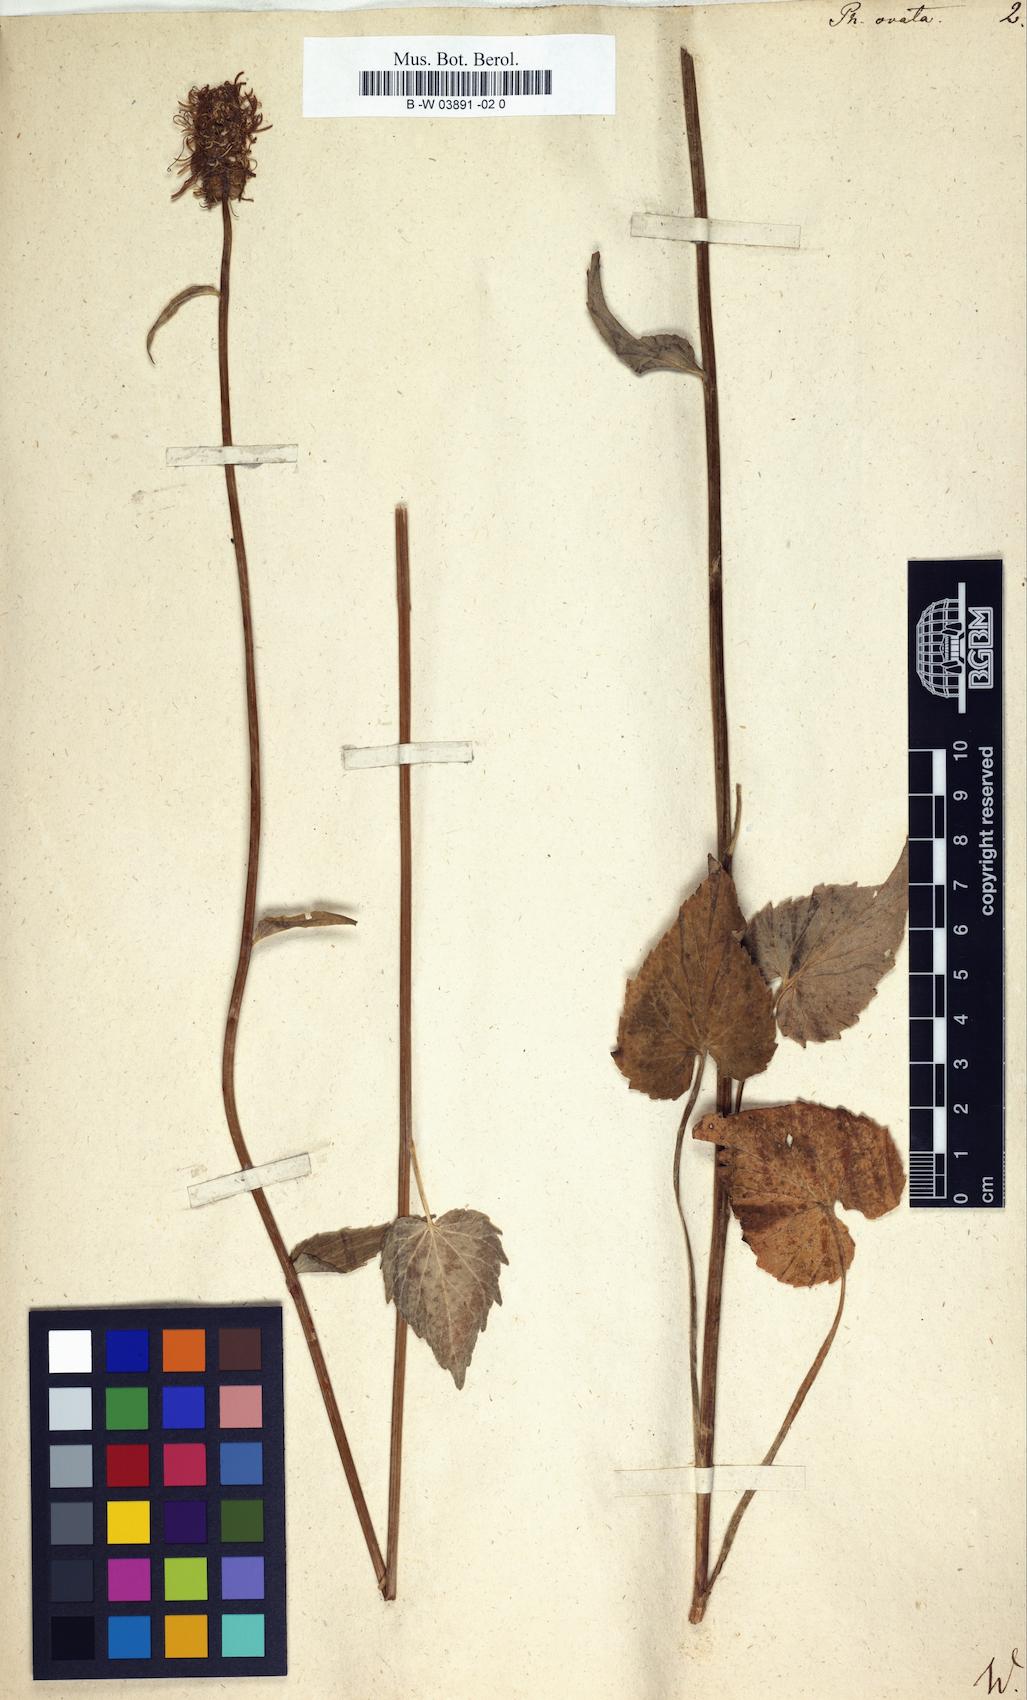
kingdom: Plantae
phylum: Tracheophyta
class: Magnoliopsida
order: Asterales
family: Campanulaceae
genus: Phyteuma
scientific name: Phyteuma ovatum
